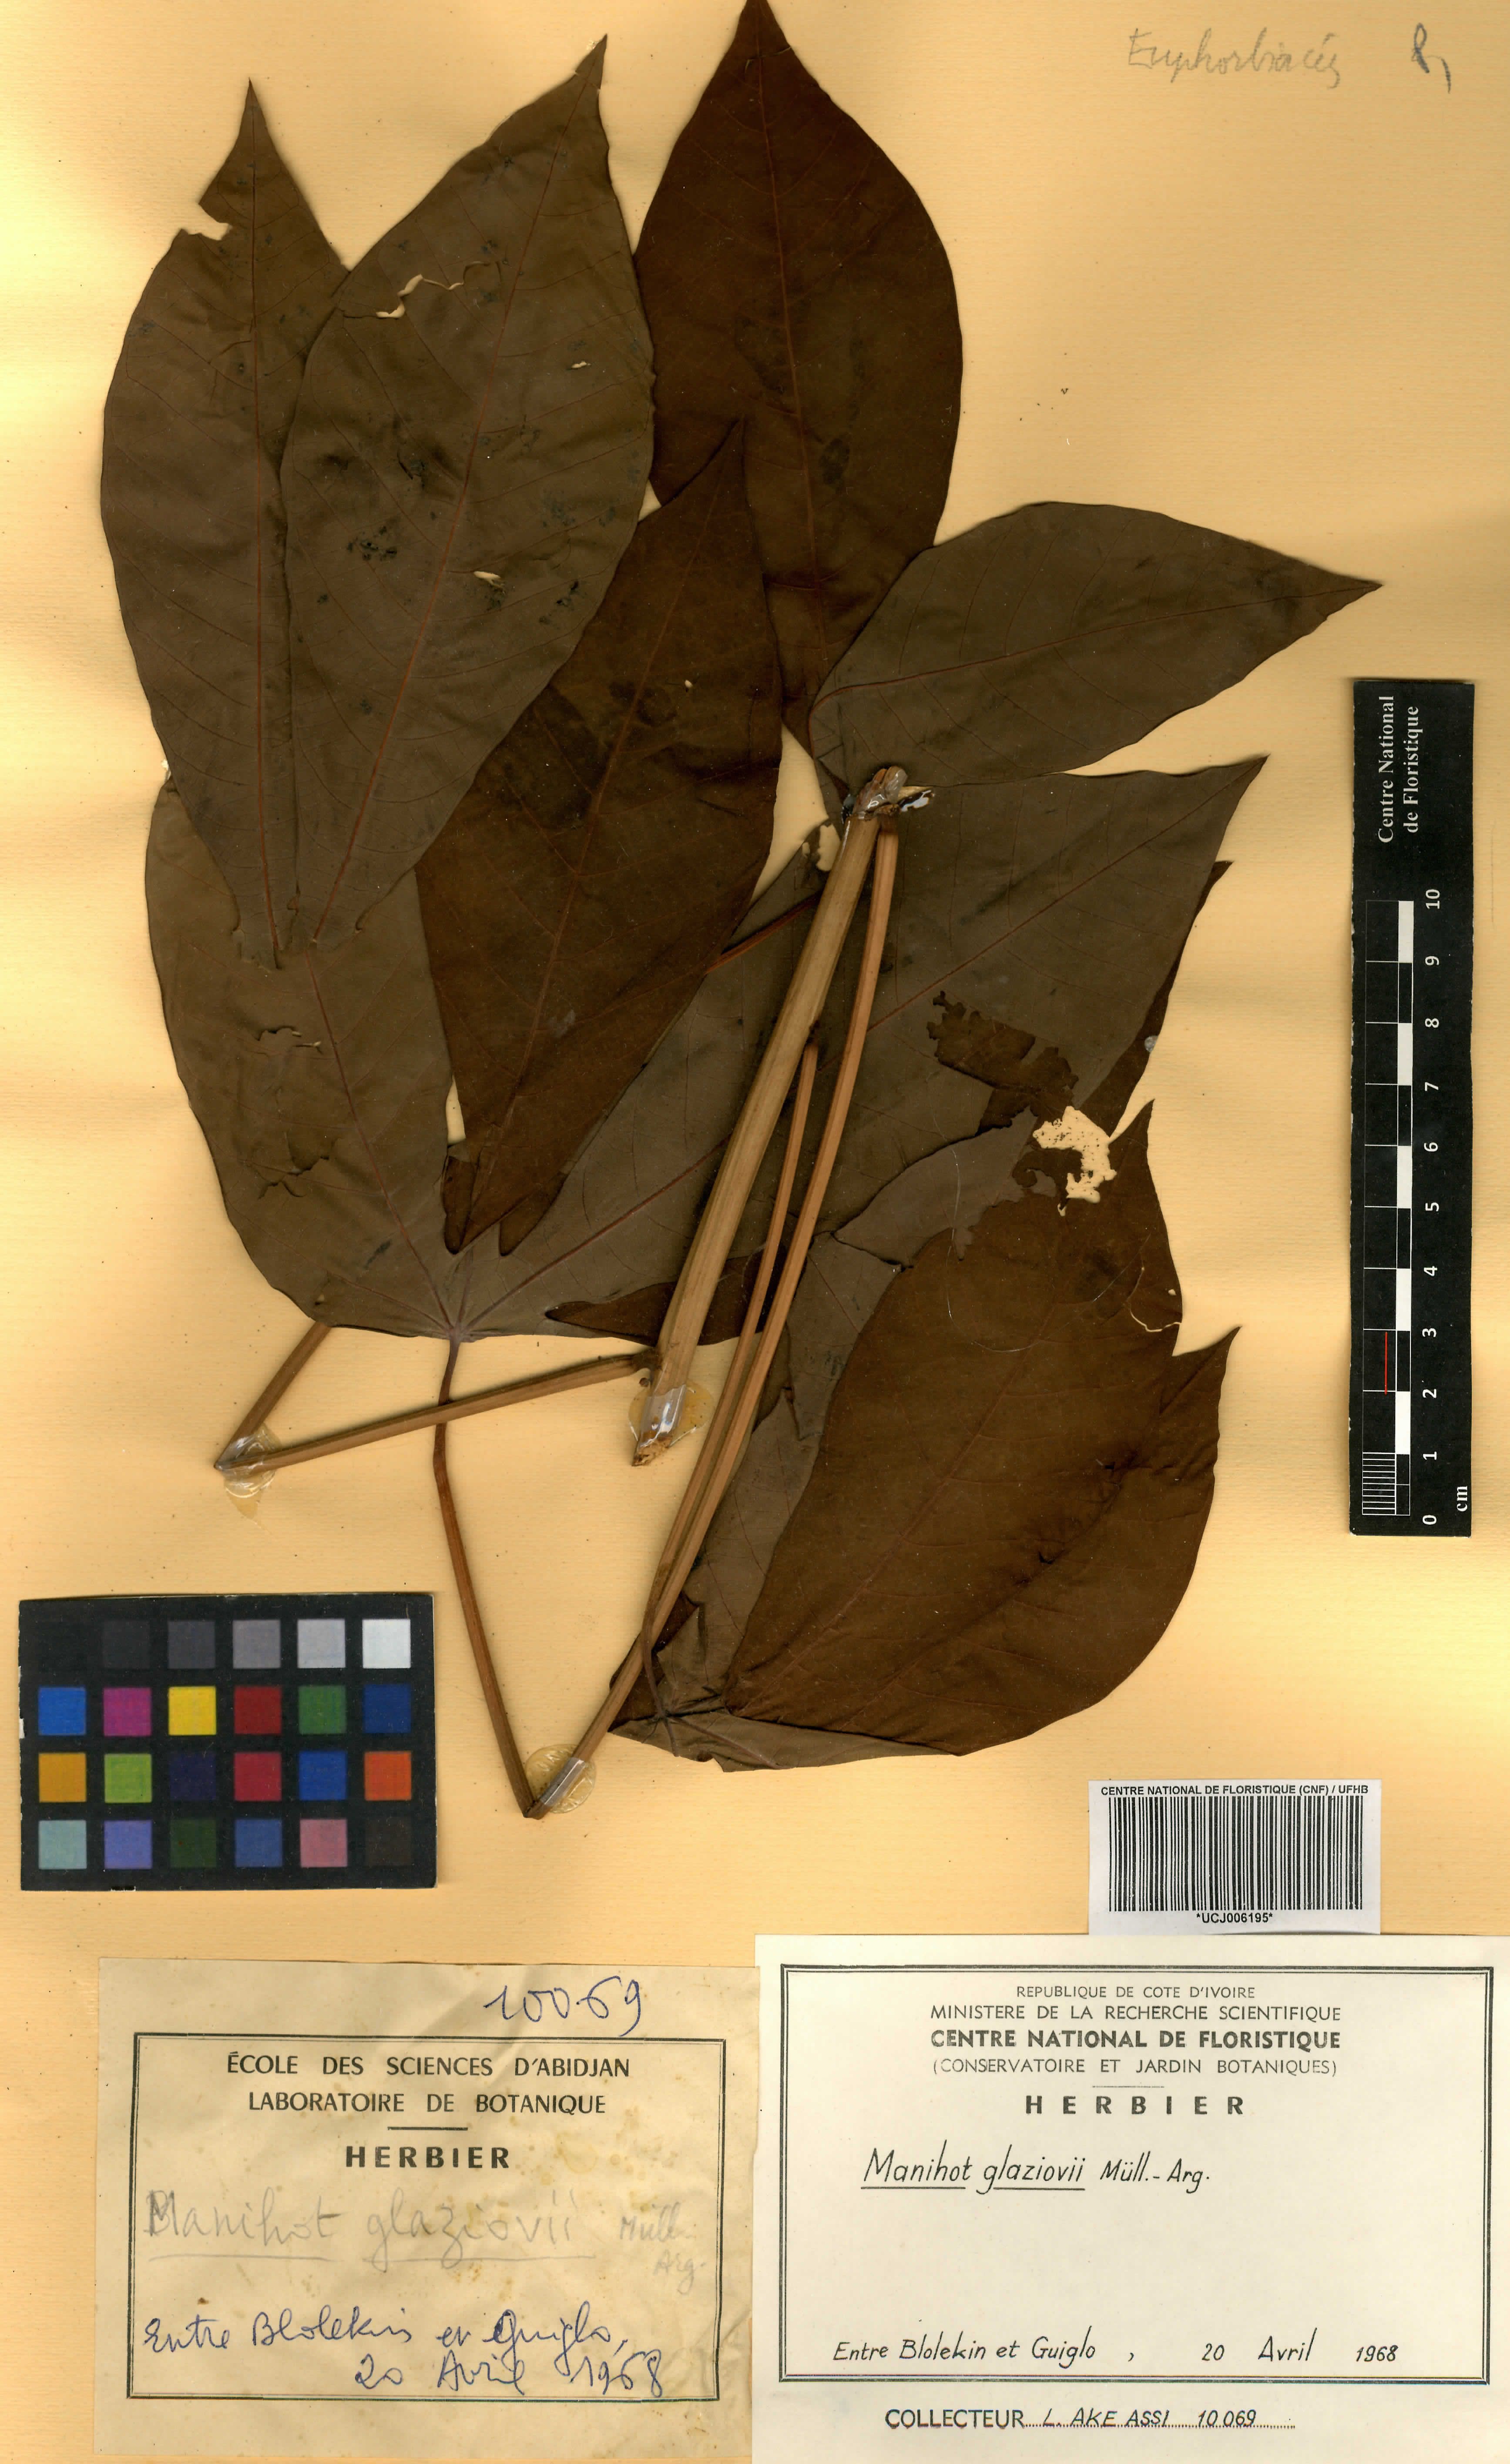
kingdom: Plantae
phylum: Tracheophyta
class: Magnoliopsida
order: Malpighiales
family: Euphorbiaceae
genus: Manihot
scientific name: Manihot carthagenensis
